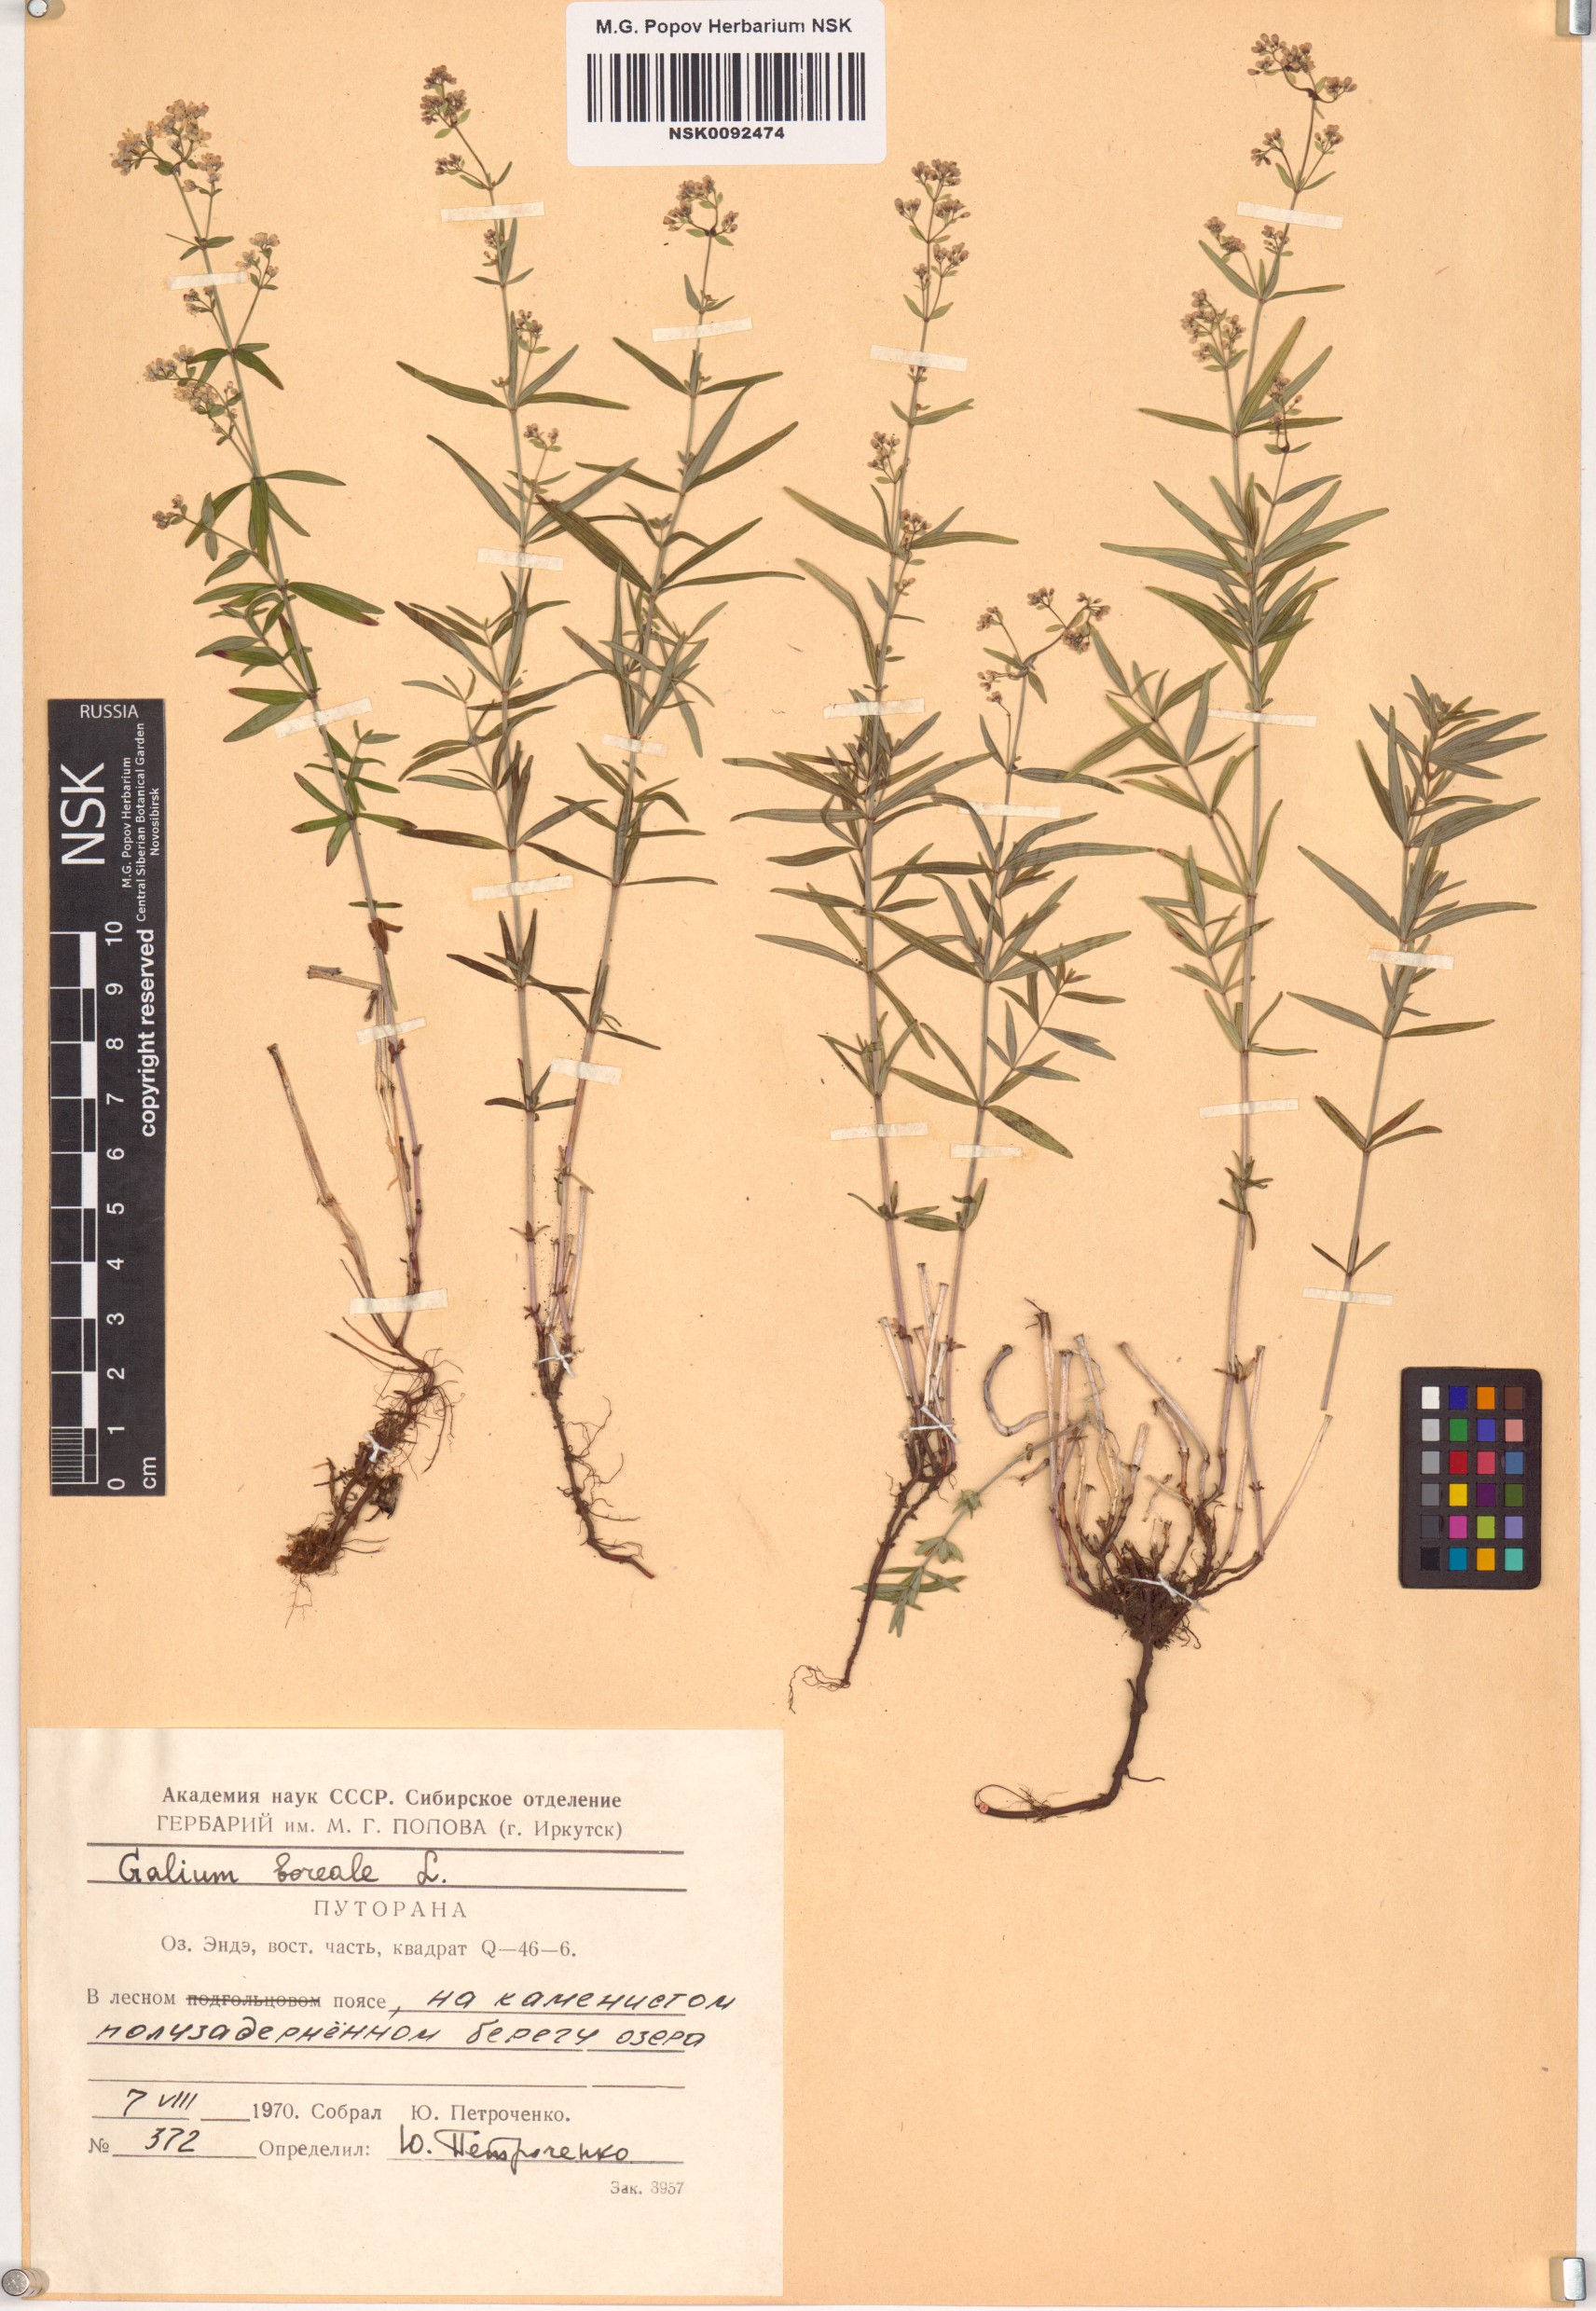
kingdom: Plantae
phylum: Tracheophyta
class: Magnoliopsida
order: Gentianales
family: Rubiaceae
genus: Galium
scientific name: Galium boreale
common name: Northern bedstraw
